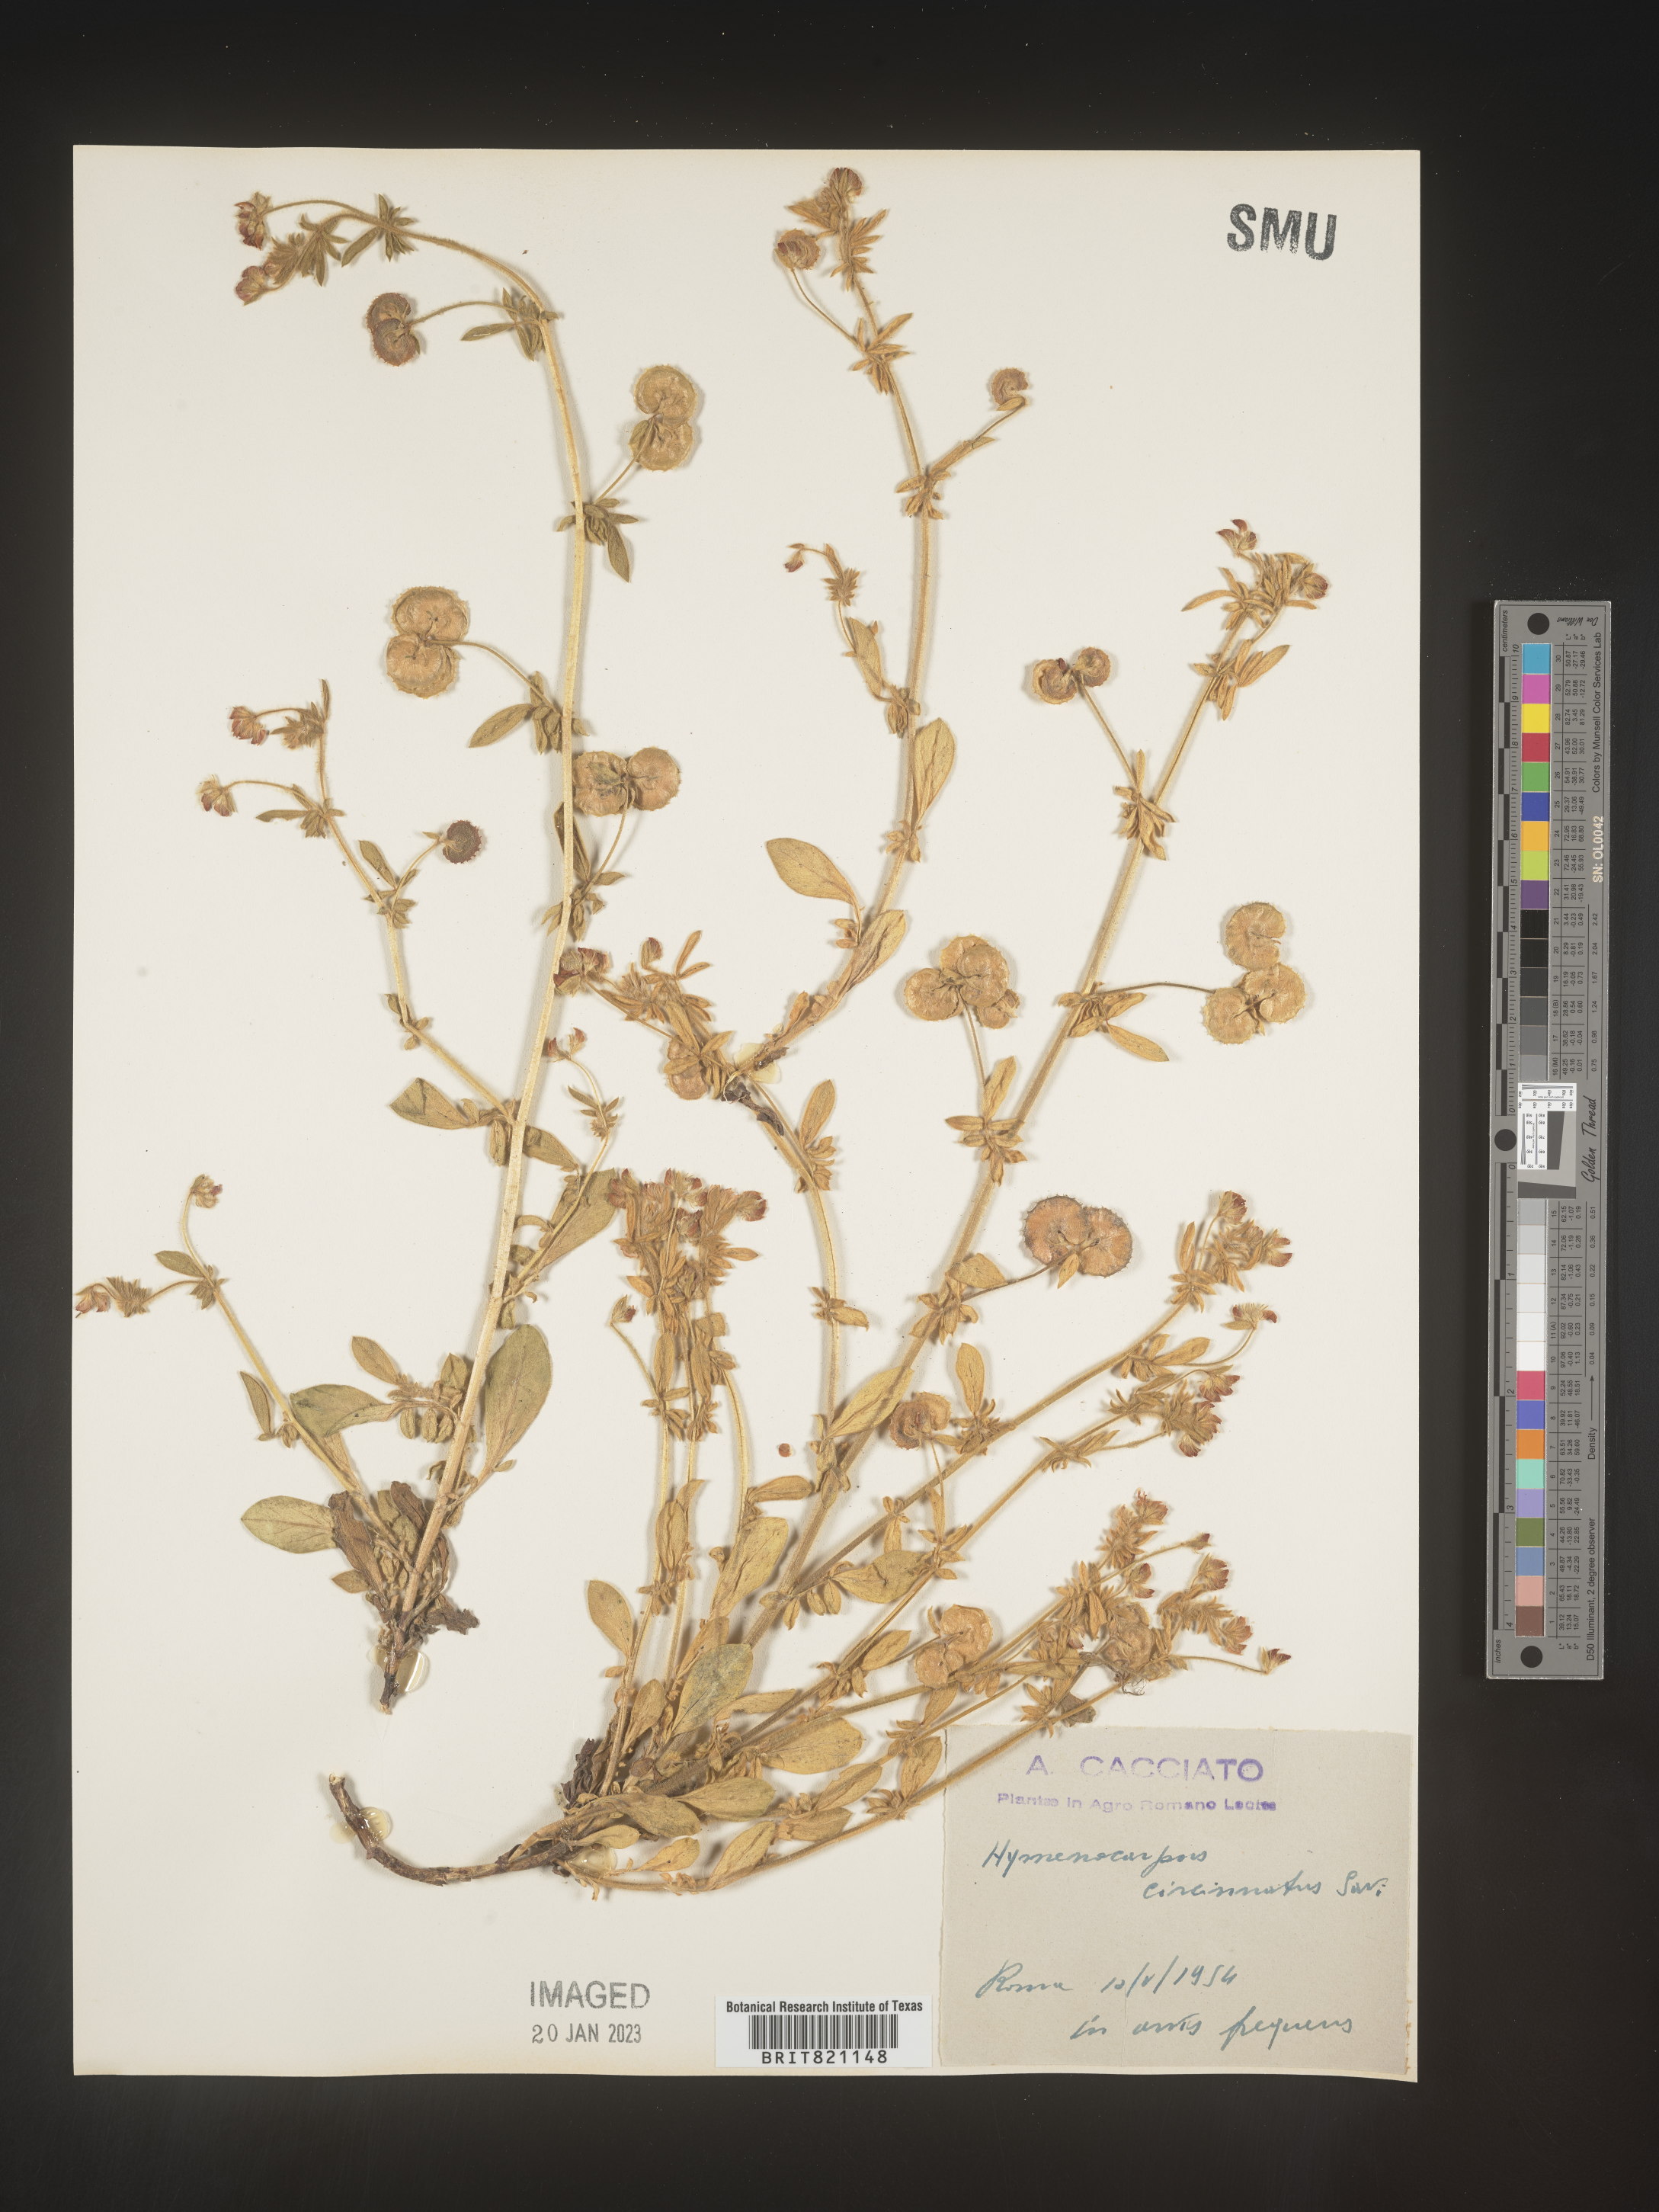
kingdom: Plantae
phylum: Tracheophyta
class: Magnoliopsida
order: Fabales
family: Fabaceae
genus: Anthyllis
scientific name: Anthyllis Hymenocarpos spec
